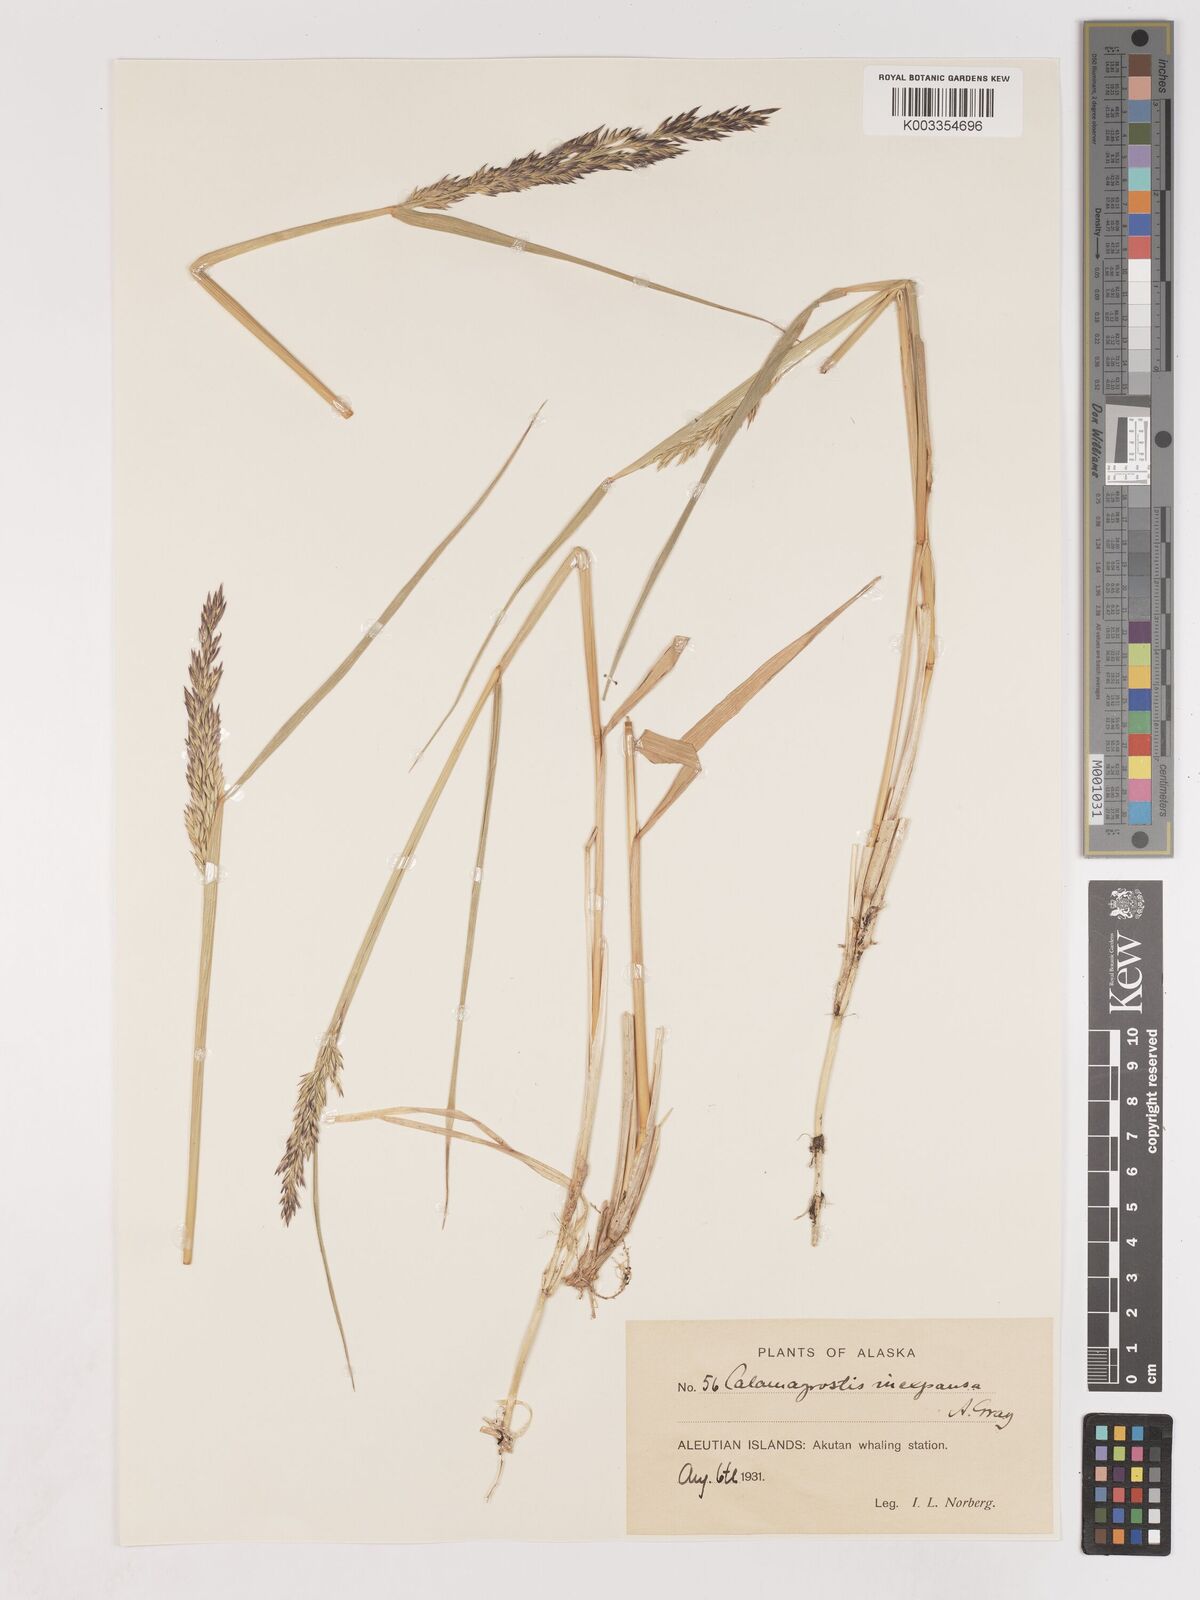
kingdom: Plantae
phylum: Tracheophyta
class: Liliopsida
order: Poales
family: Poaceae
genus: Cinnagrostis
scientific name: Cinnagrostis recta
